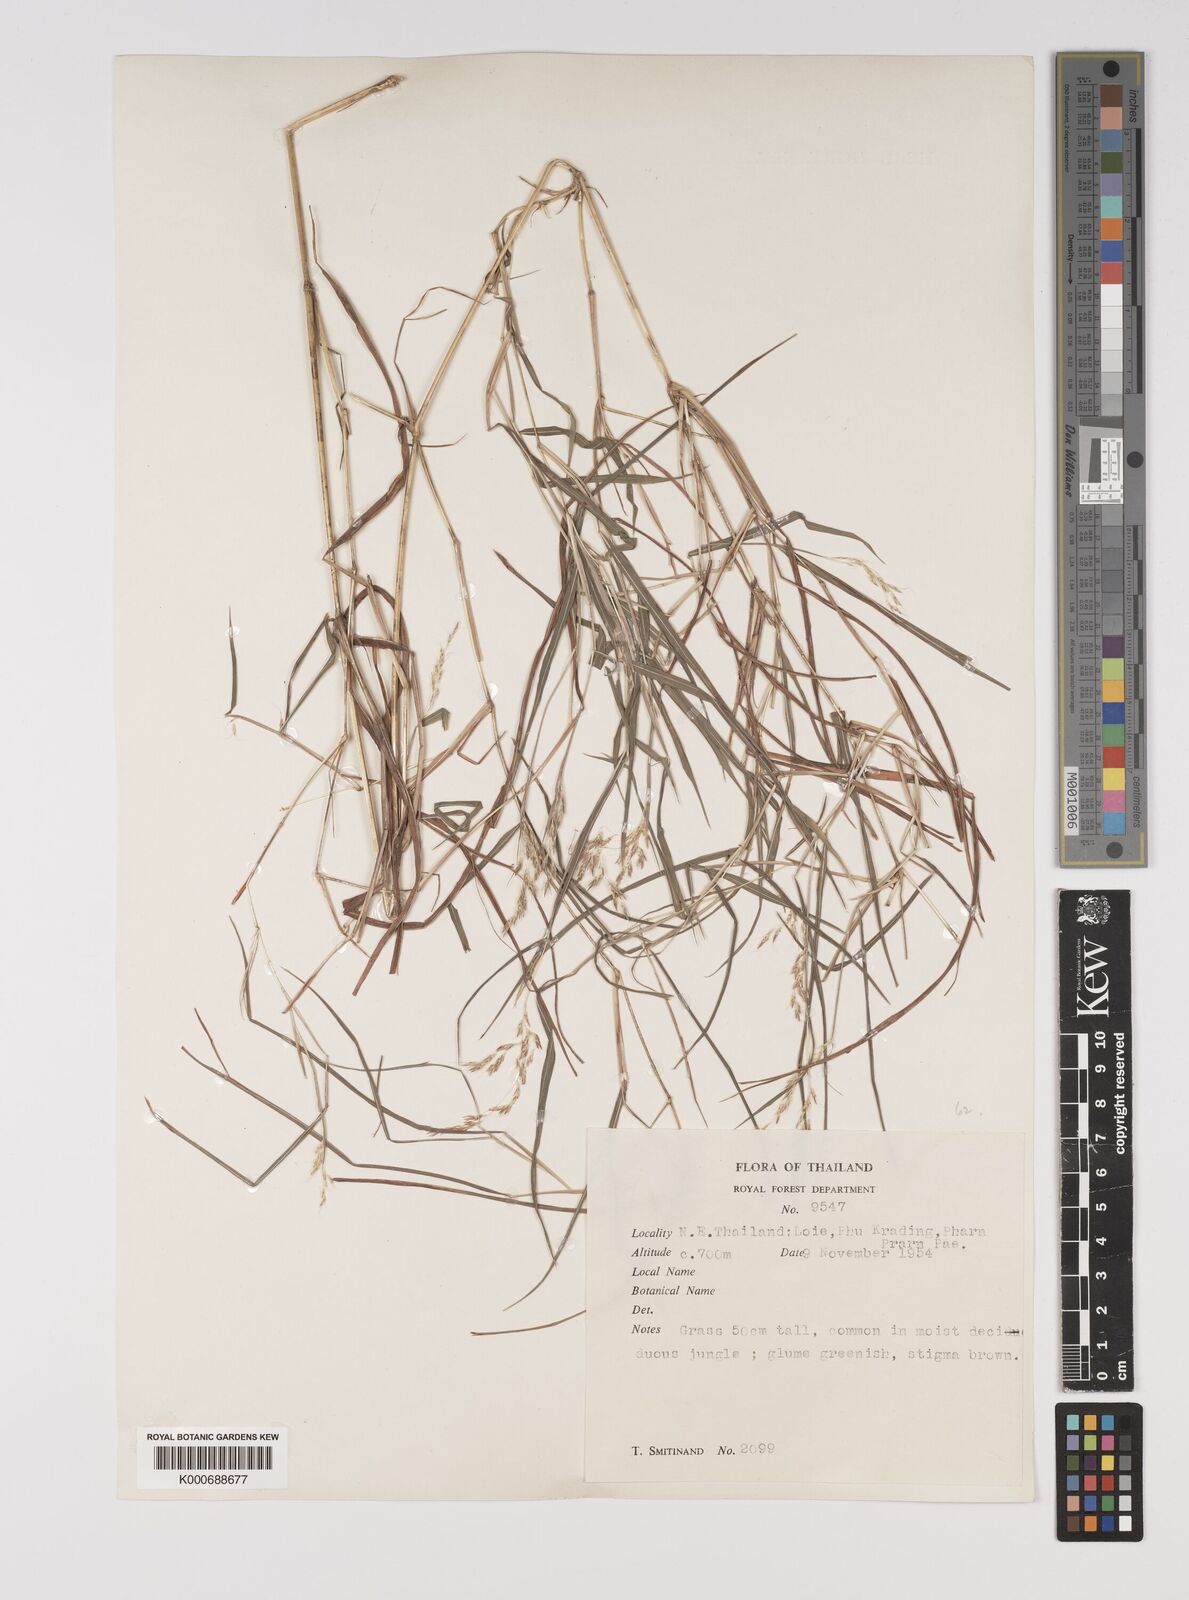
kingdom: Plantae
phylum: Tracheophyta
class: Liliopsida
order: Poales
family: Poaceae
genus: Capillipedium
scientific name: Capillipedium assimile
